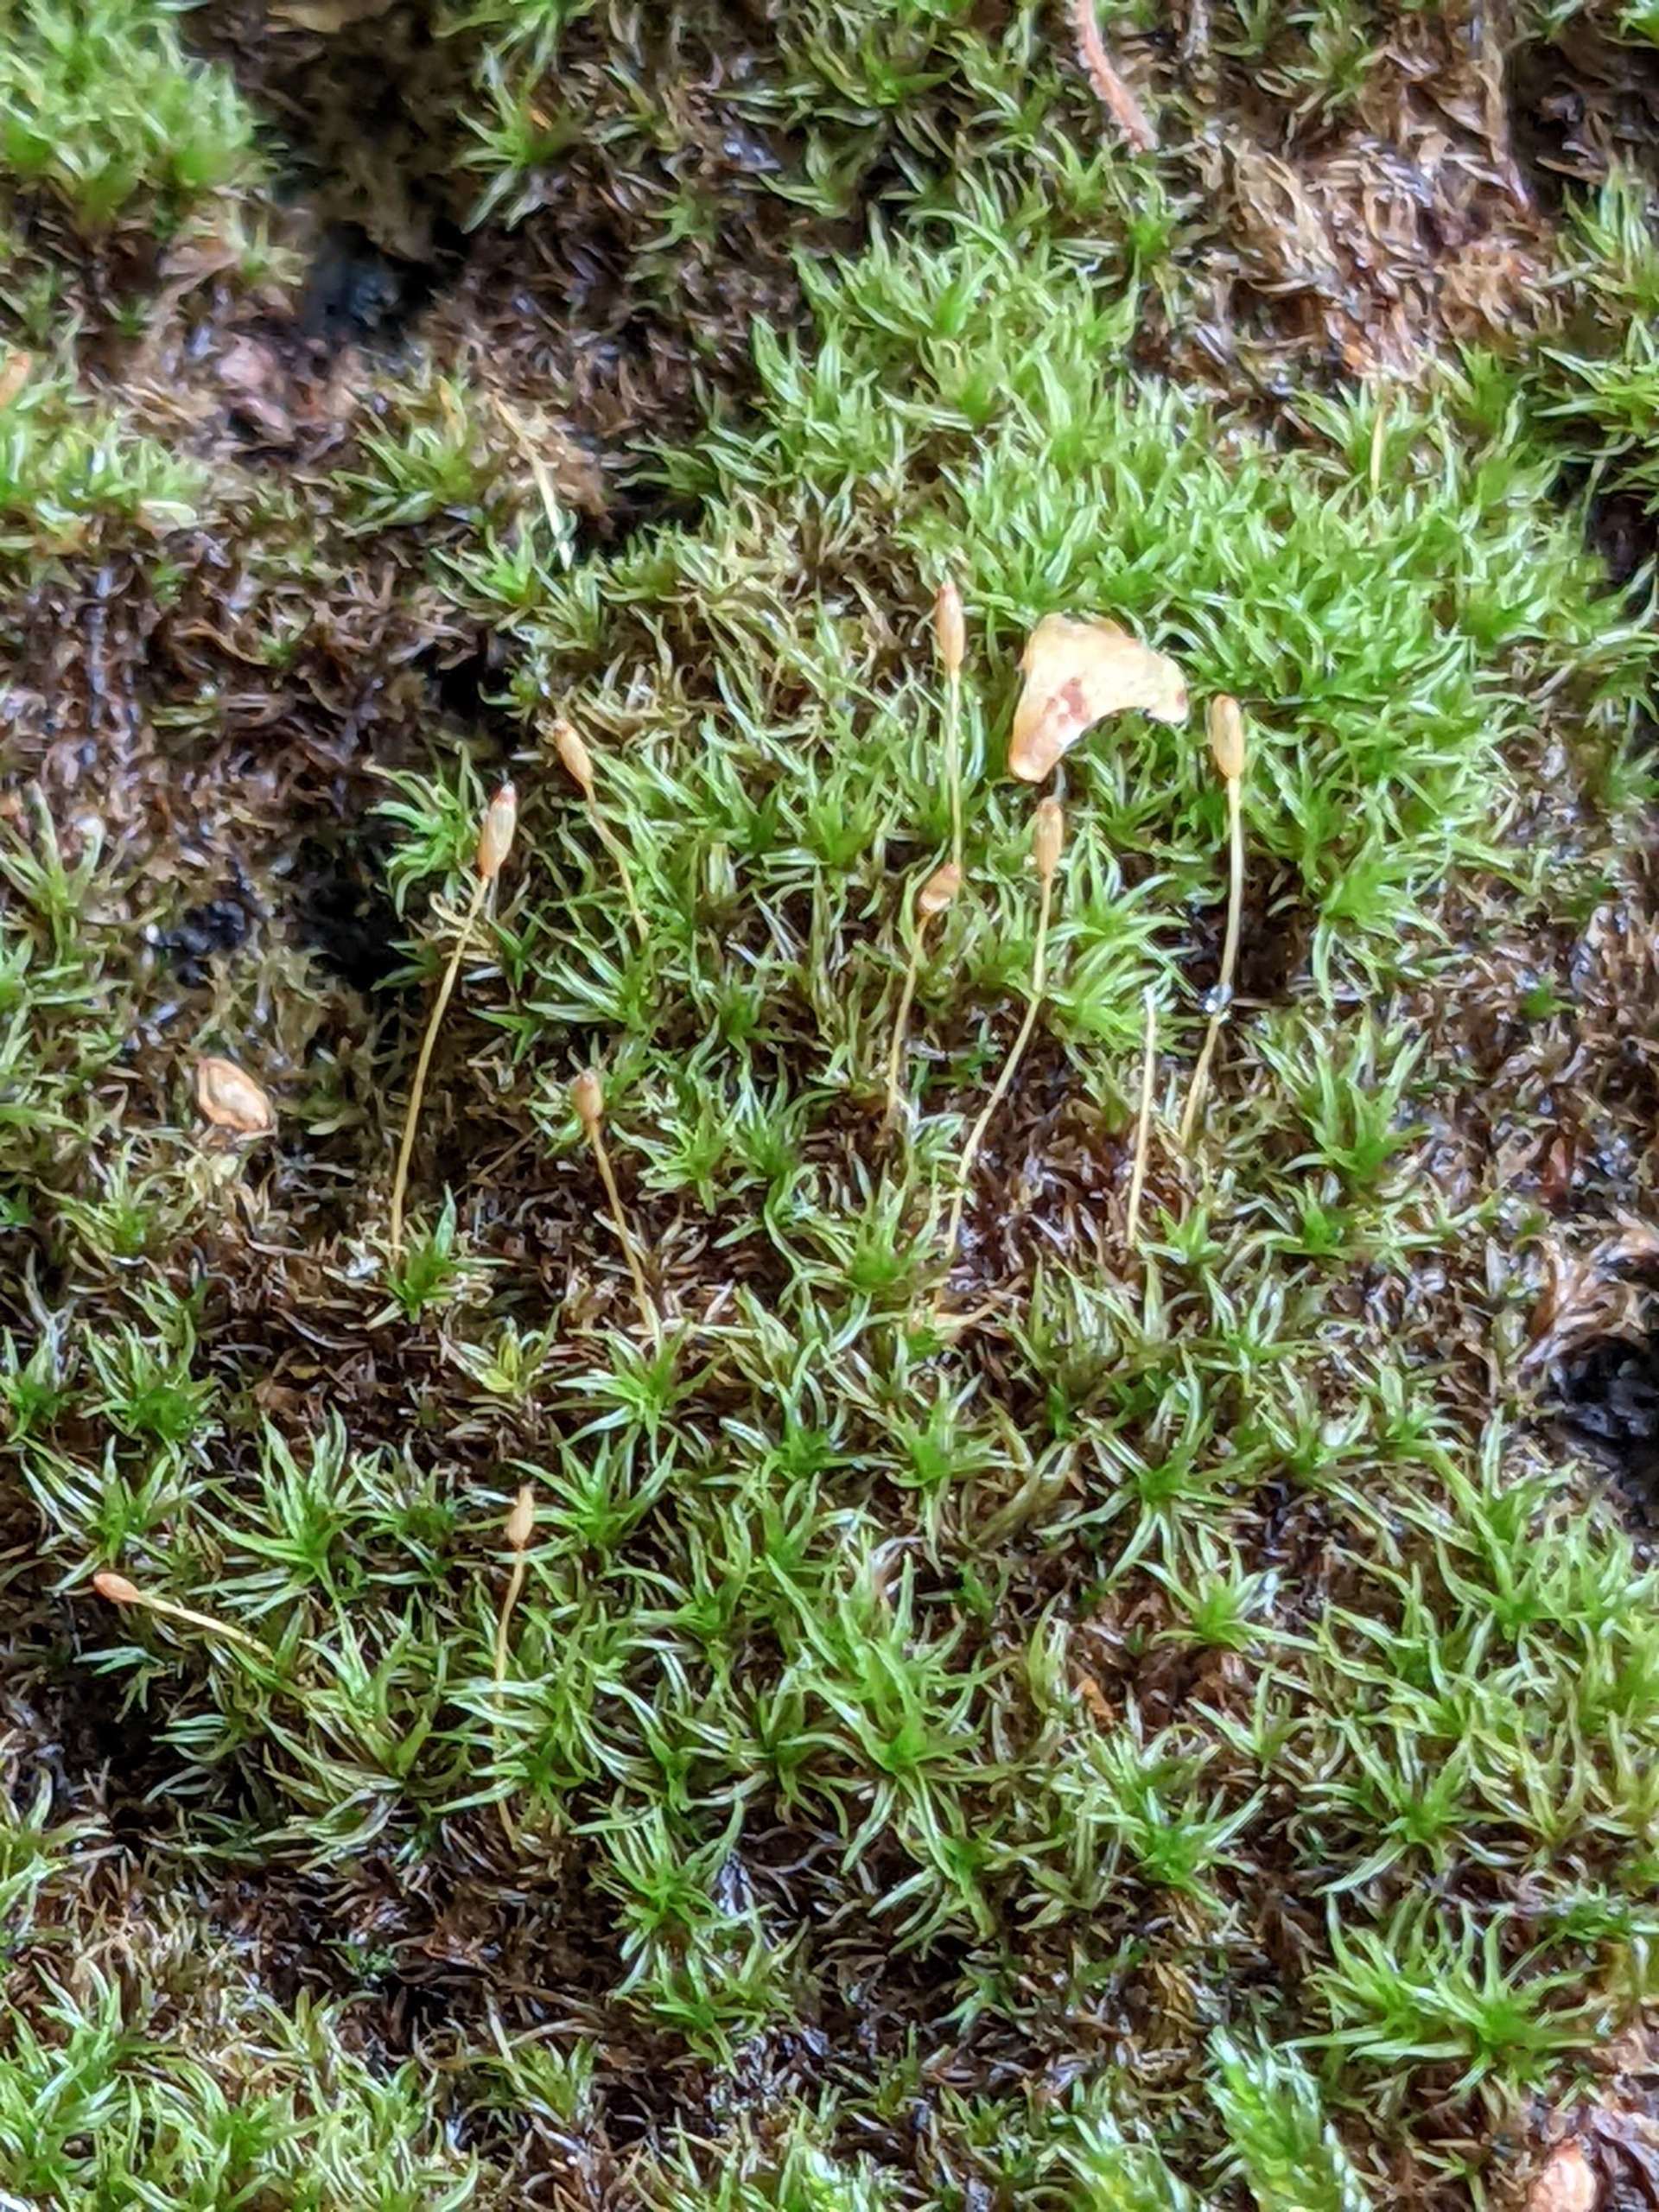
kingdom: Plantae
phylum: Bryophyta
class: Bryopsida
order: Dicranales
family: Rhabdoweisiaceae
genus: Dicranoweisia
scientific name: Dicranoweisia cirrata
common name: Almindelig krøltuemos
